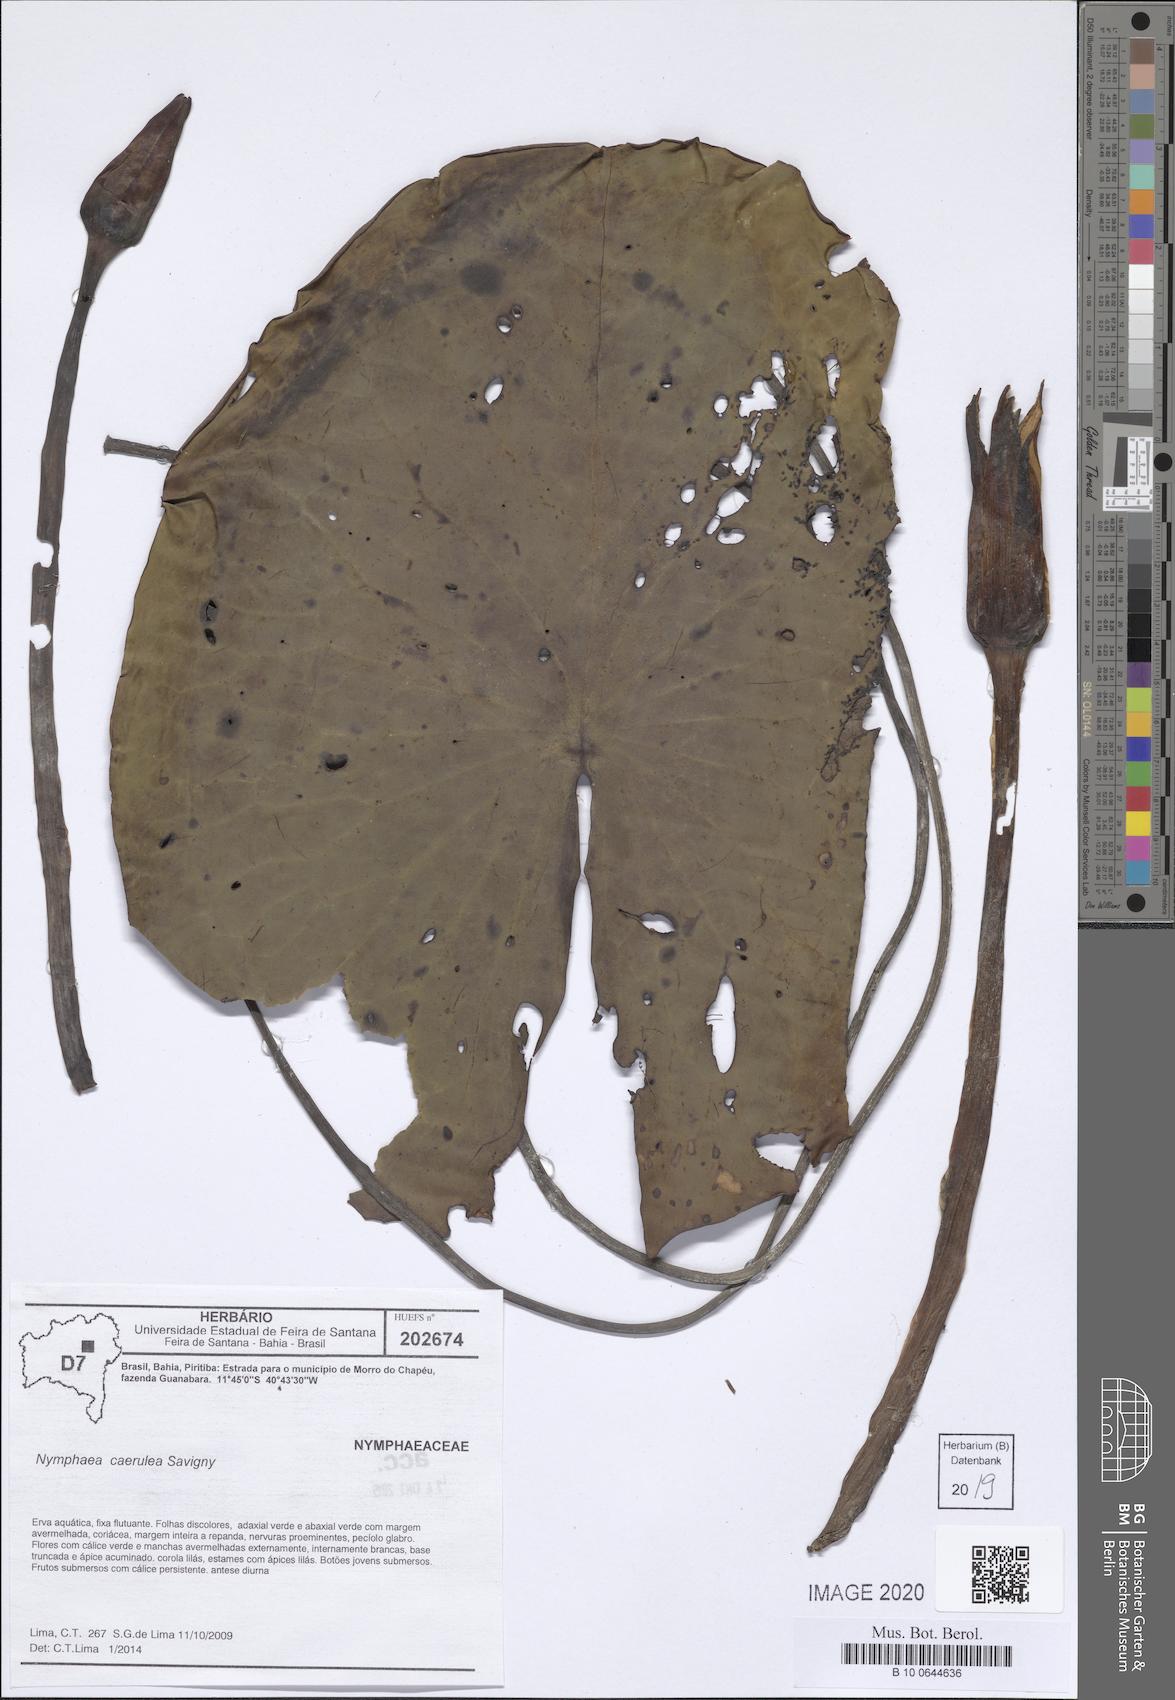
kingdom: Plantae
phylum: Tracheophyta
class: Magnoliopsida
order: Nymphaeales
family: Nymphaeaceae
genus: Nymphaea
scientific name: Nymphaea
